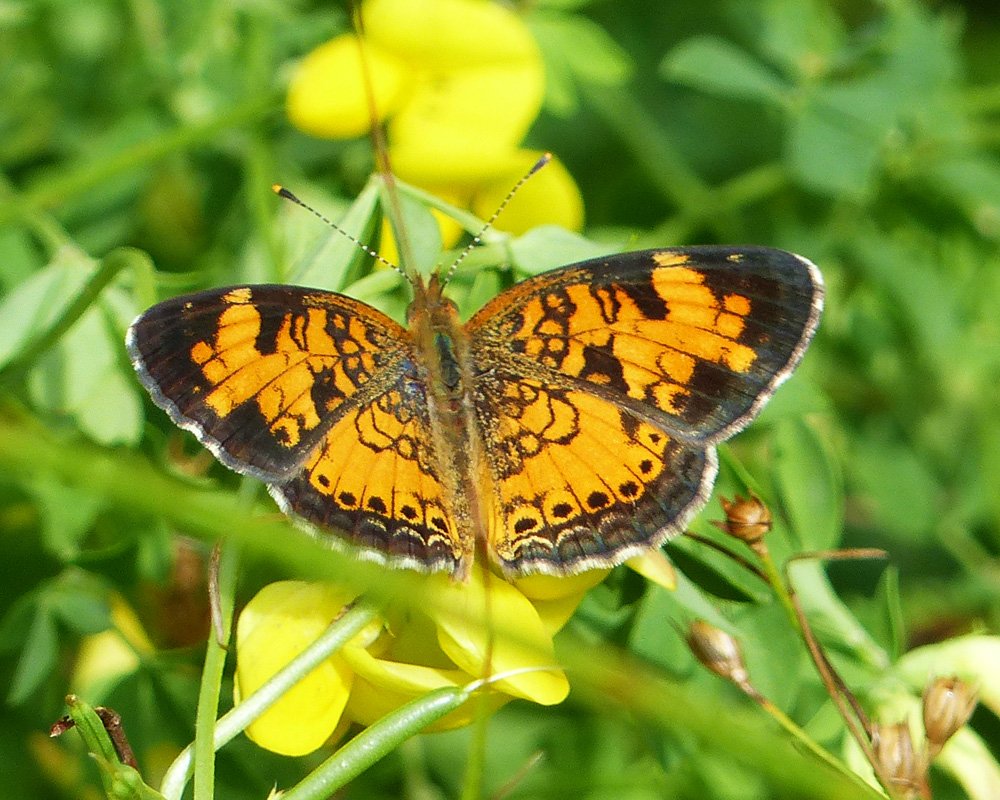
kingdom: Animalia
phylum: Arthropoda
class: Insecta
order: Lepidoptera
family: Nymphalidae
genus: Phyciodes
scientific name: Phyciodes tharos
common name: Northern Crescent
